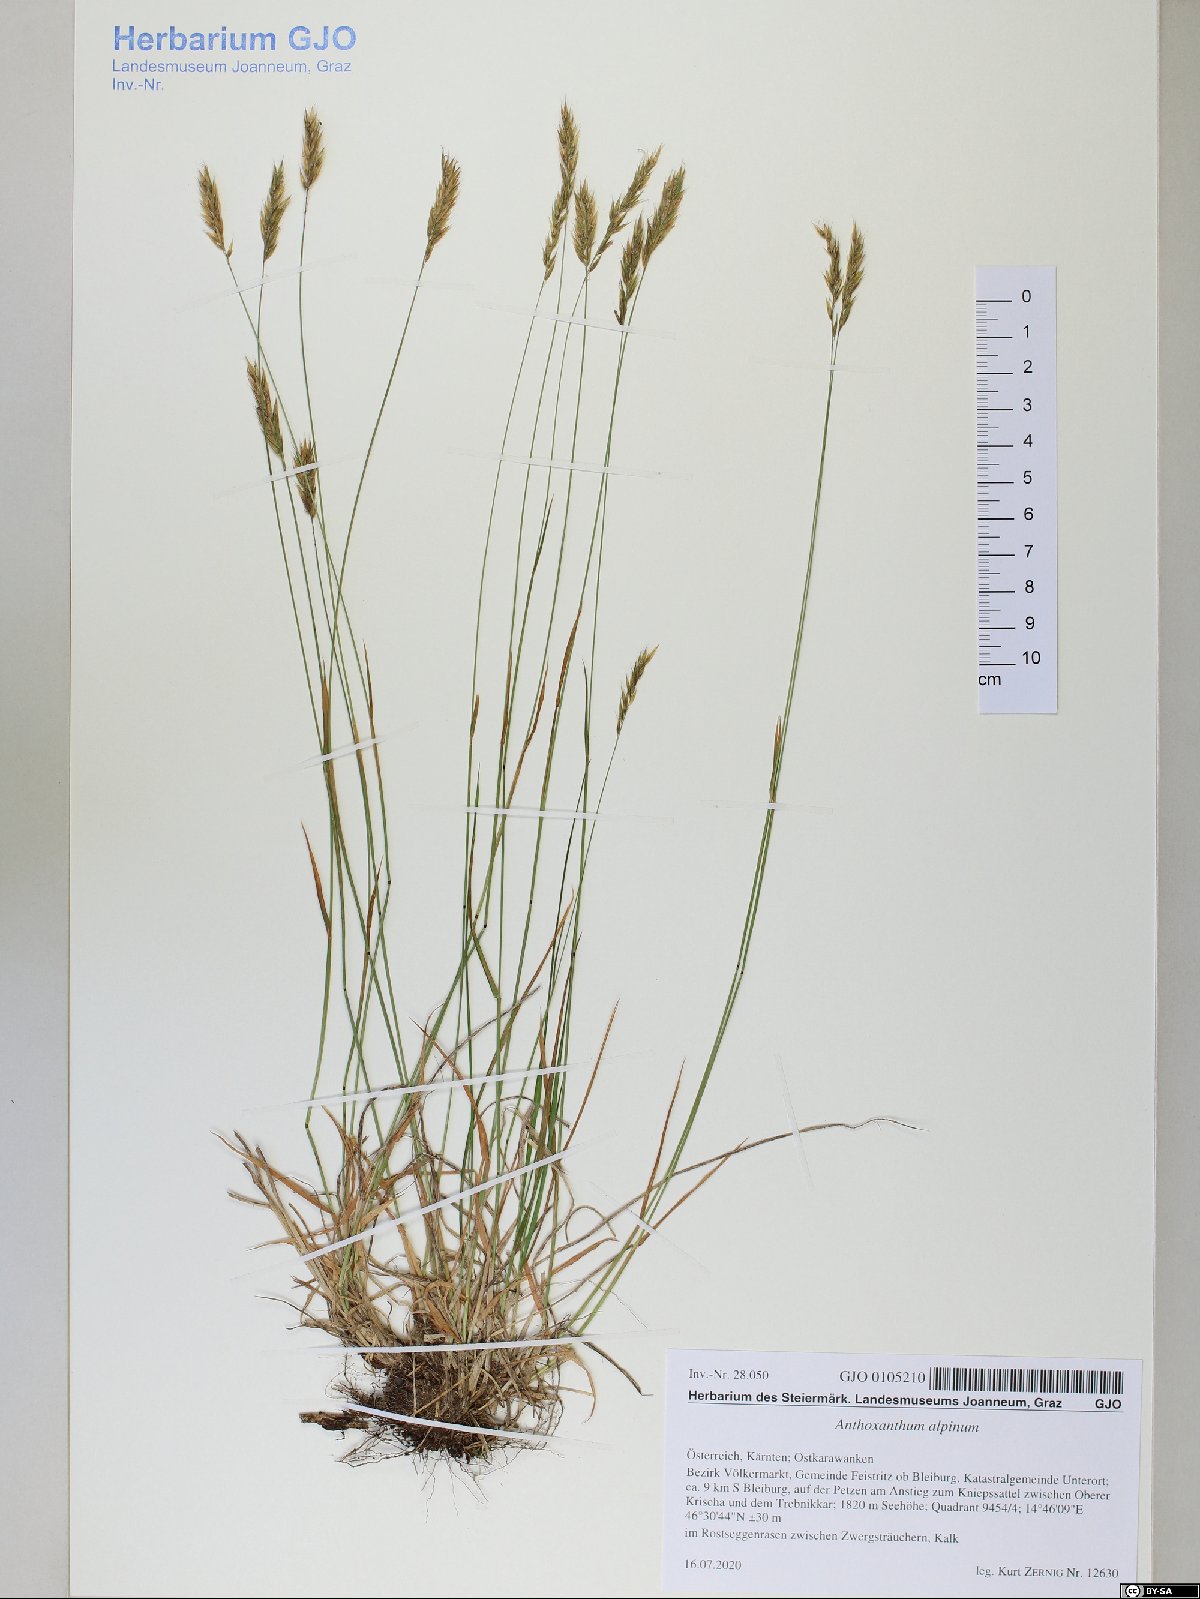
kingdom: Plantae
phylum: Tracheophyta
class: Liliopsida
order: Poales
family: Poaceae
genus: Anthoxanthum
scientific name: Anthoxanthum nipponicum
